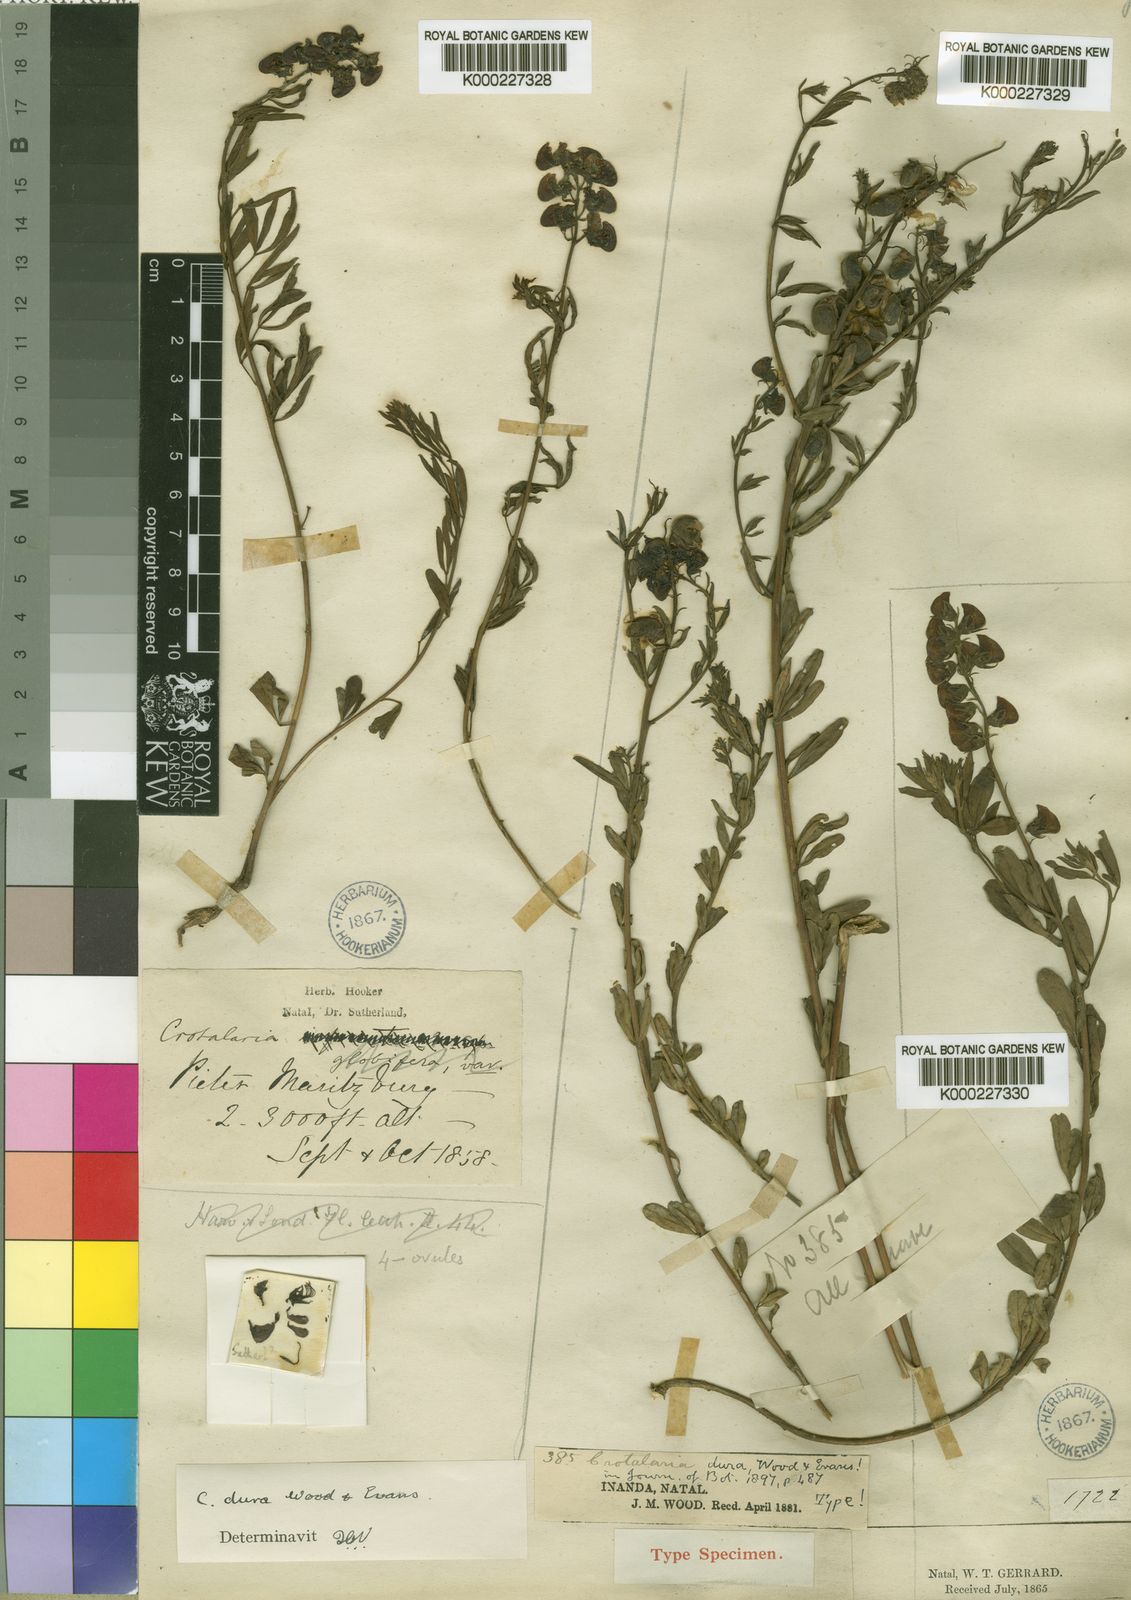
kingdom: Plantae
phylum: Tracheophyta
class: Magnoliopsida
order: Fabales
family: Fabaceae
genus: Crotalaria
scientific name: Crotalaria dura
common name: Wild lucerne
